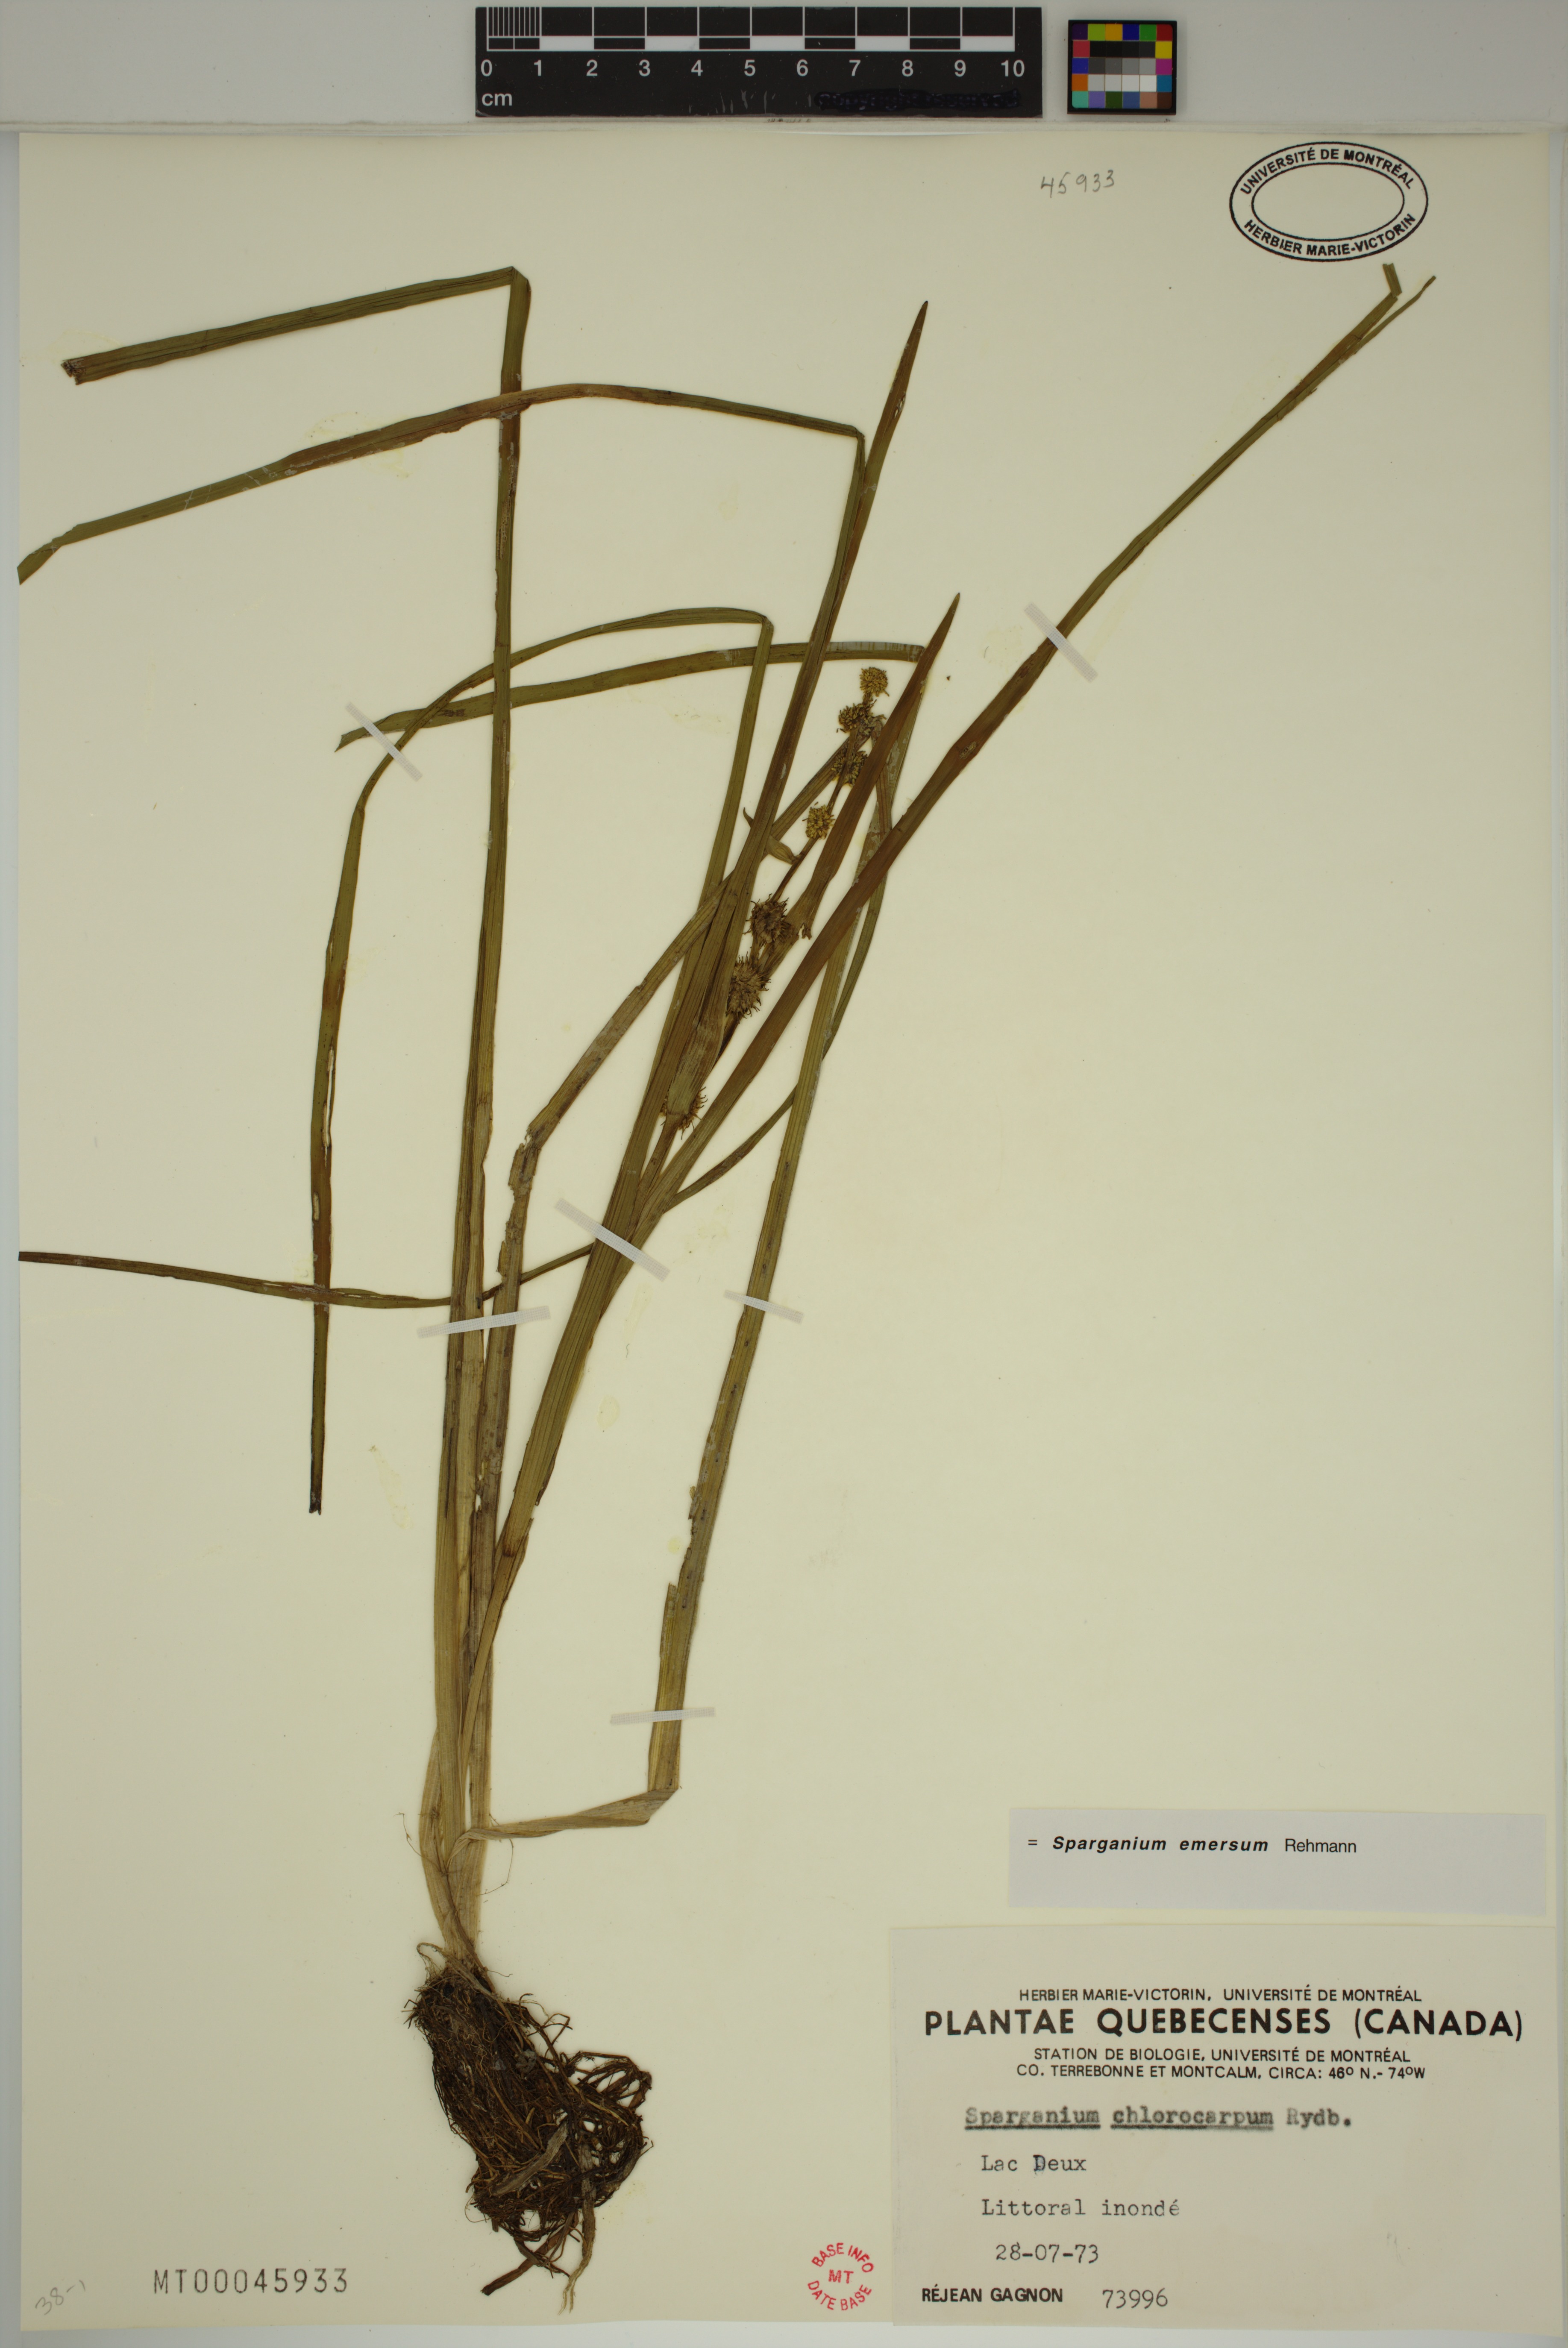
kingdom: Plantae
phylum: Tracheophyta
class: Liliopsida
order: Poales
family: Typhaceae
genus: Sparganium
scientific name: Sparganium emersum
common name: Unbranched bur-reed
